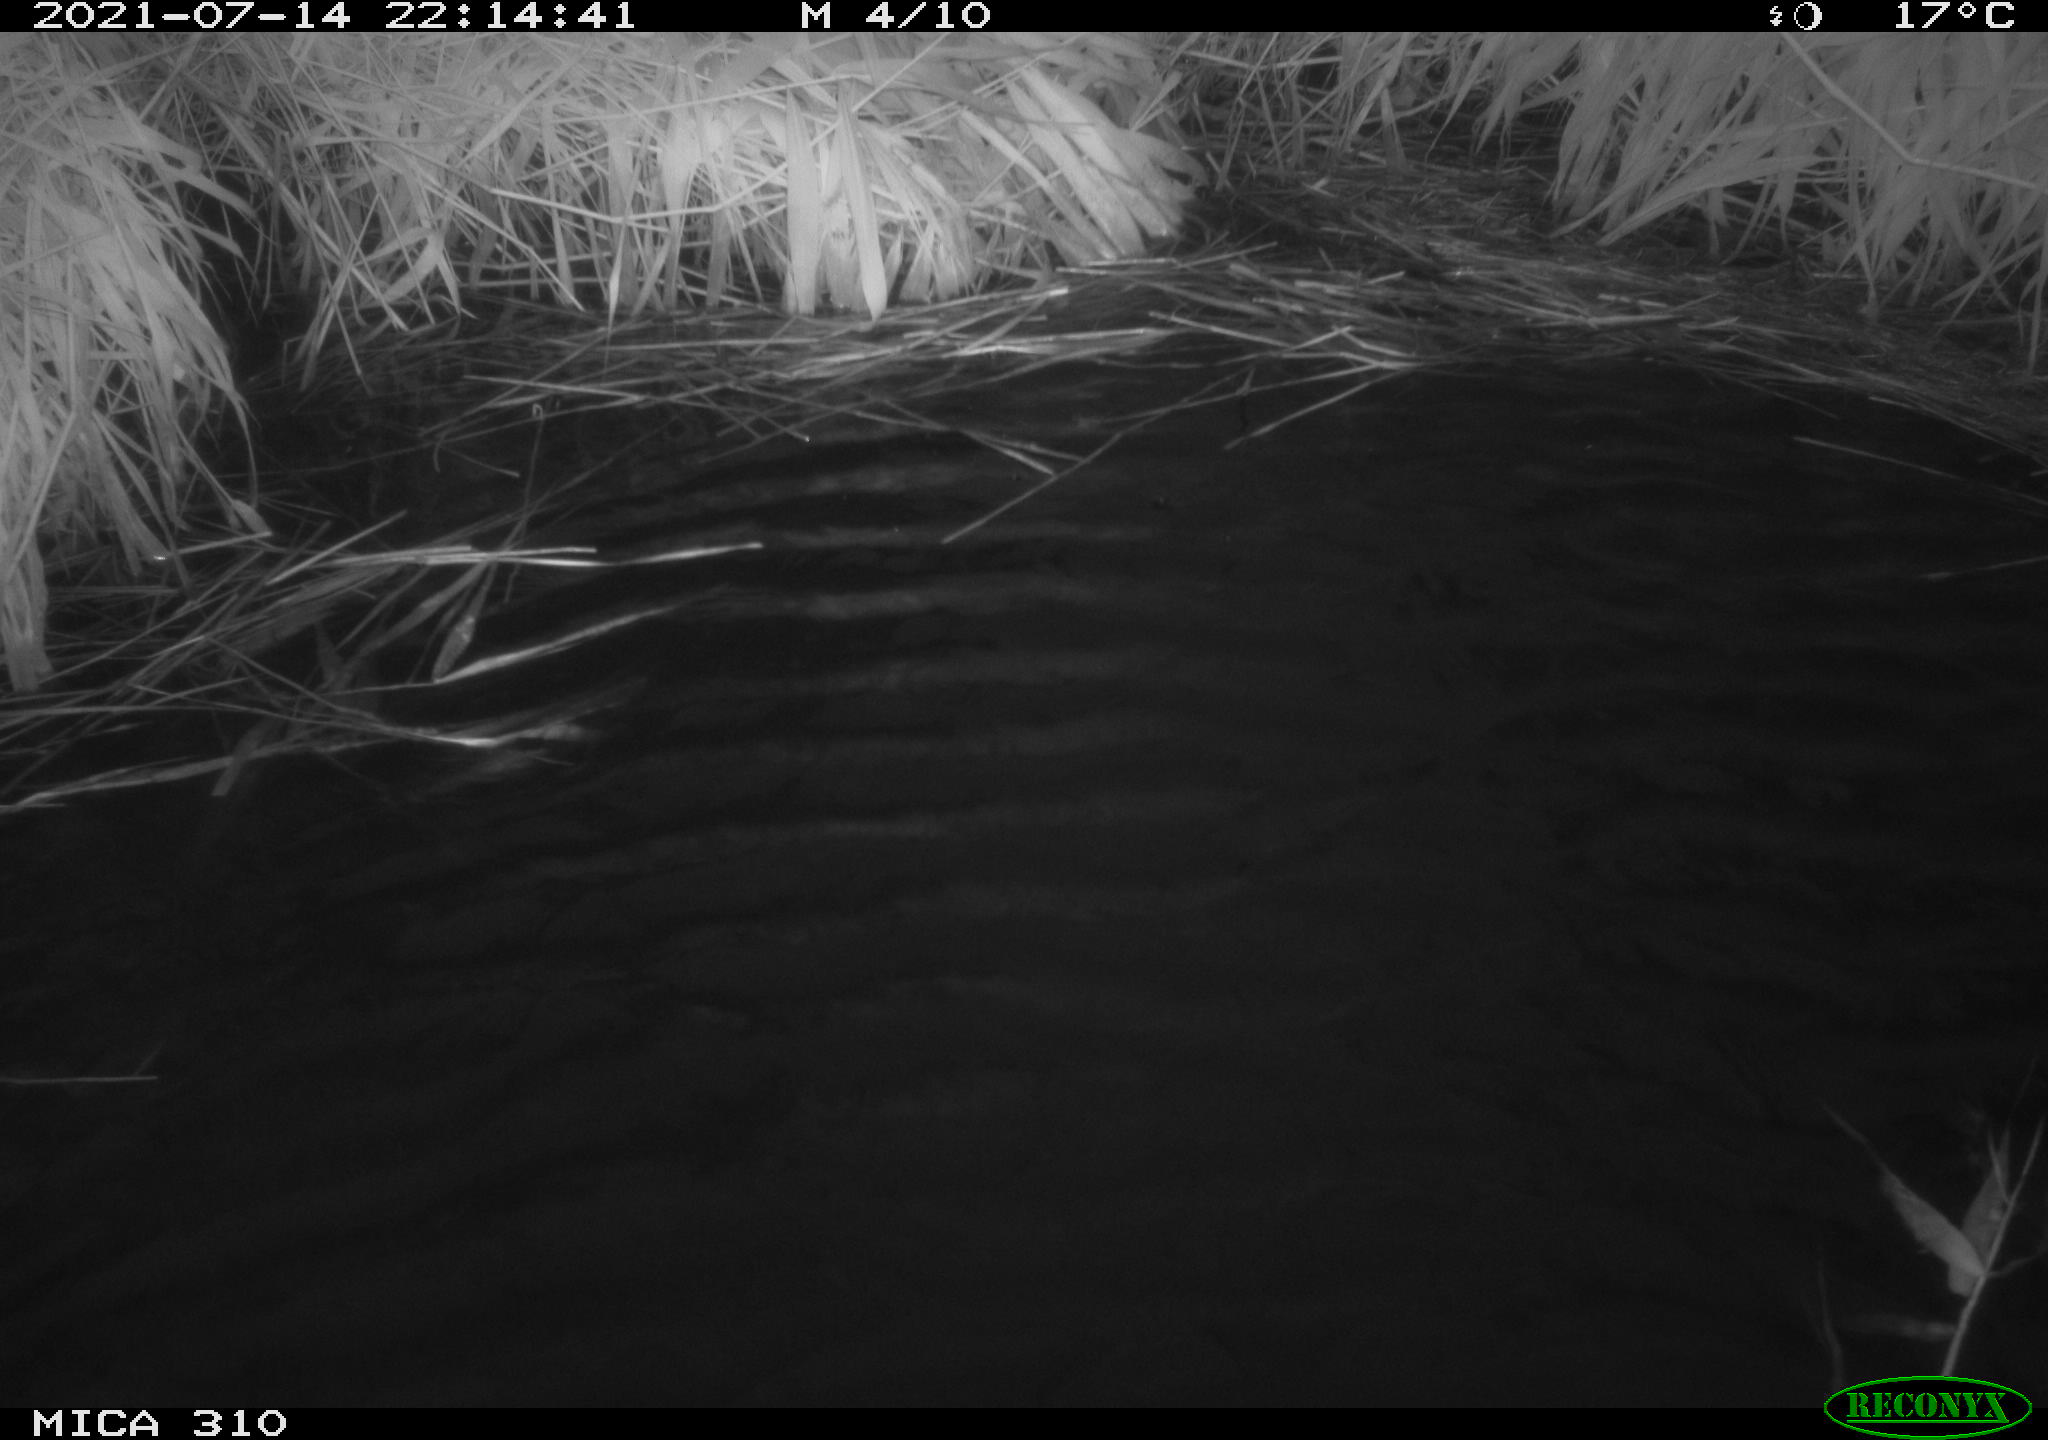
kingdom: Animalia
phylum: Chordata
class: Aves
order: Anseriformes
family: Anatidae
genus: Anas
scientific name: Anas platyrhynchos
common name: Mallard
